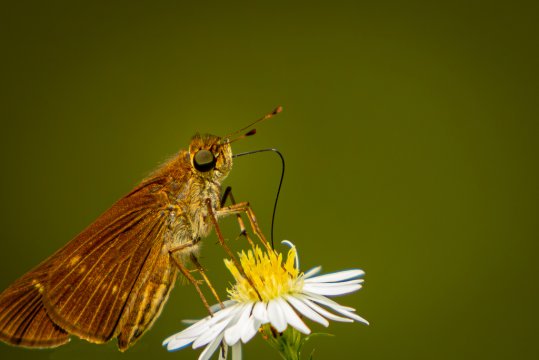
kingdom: Animalia
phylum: Arthropoda
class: Insecta
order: Lepidoptera
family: Hesperiidae
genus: Panoquina
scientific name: Panoquina ocola
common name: Ocola Skipper
